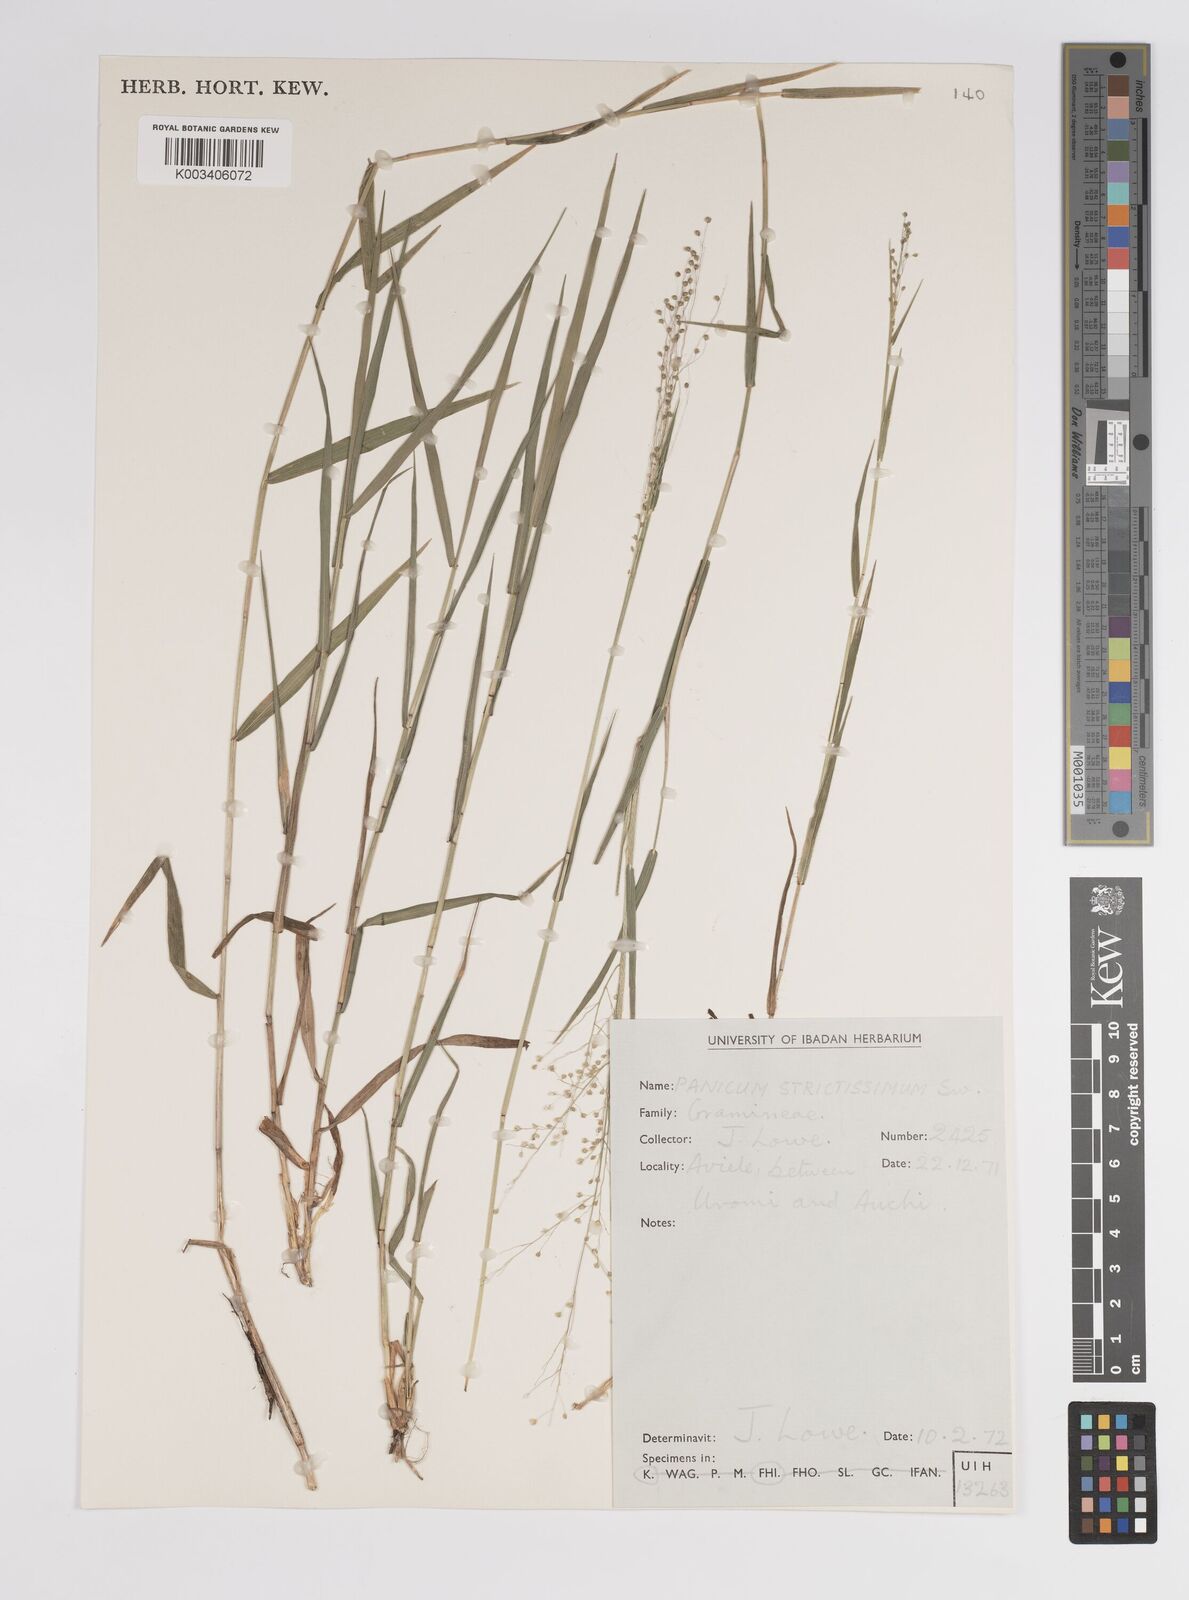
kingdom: Plantae
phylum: Tracheophyta
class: Liliopsida
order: Poales
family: Poaceae
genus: Panicum
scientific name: Panicum eickii
